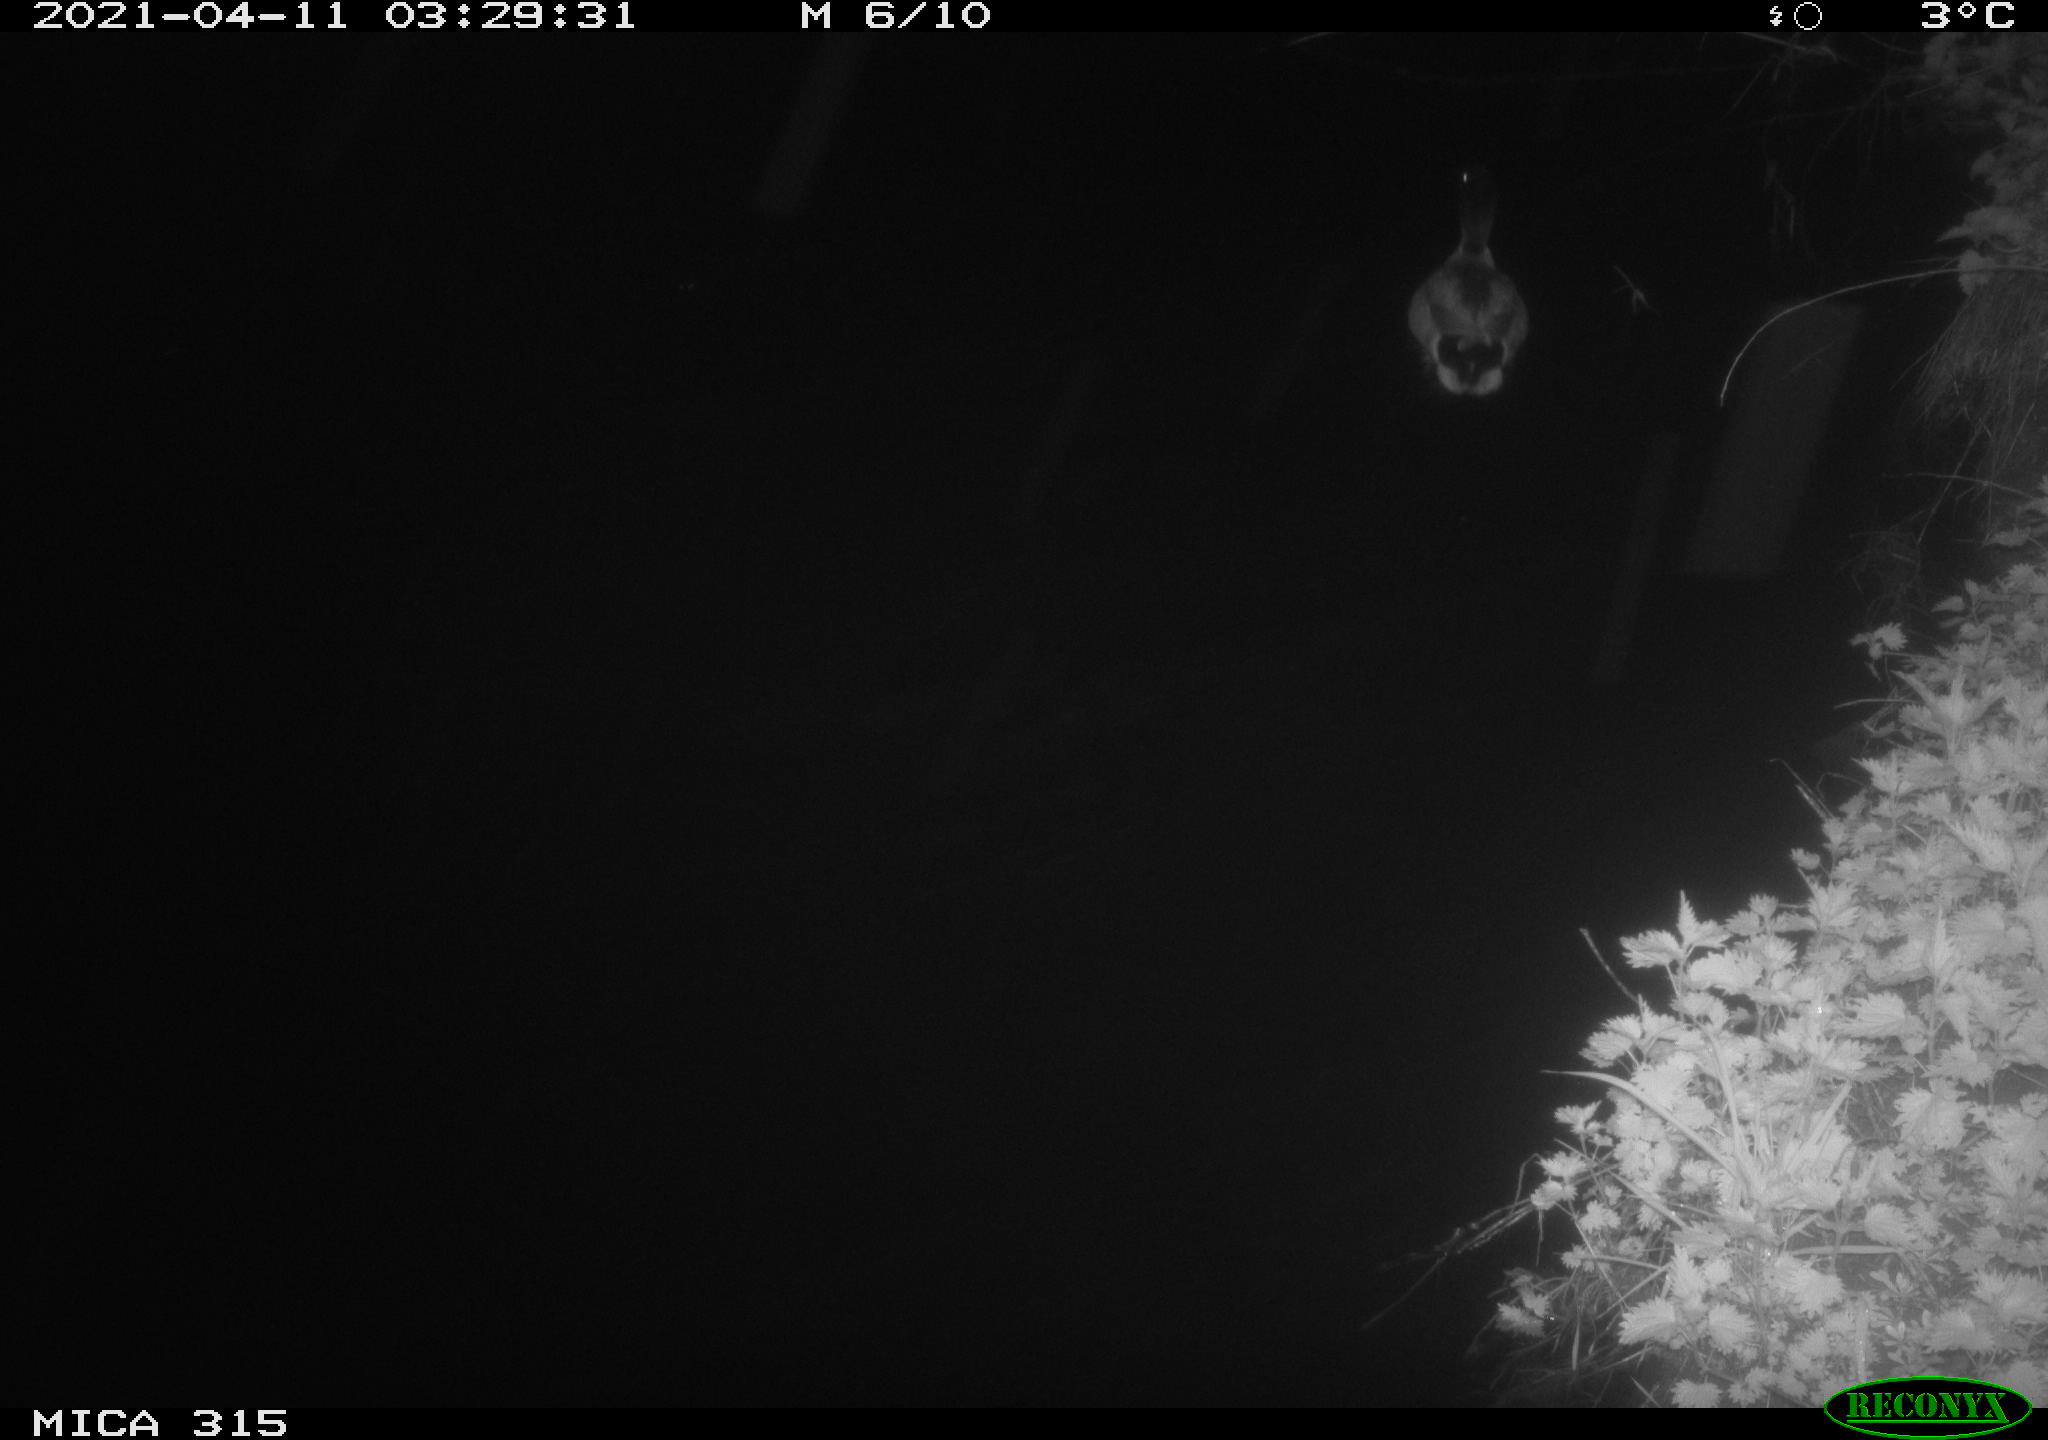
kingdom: Animalia
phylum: Chordata
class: Aves
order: Anseriformes
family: Anatidae
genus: Anas
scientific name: Anas platyrhynchos
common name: Mallard
